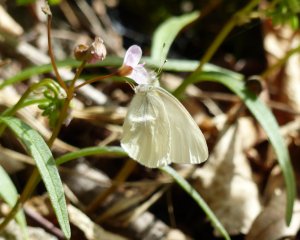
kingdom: Animalia
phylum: Arthropoda
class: Insecta
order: Lepidoptera
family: Pieridae
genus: Pieris
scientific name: Pieris virginiensis
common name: West Virginia White
